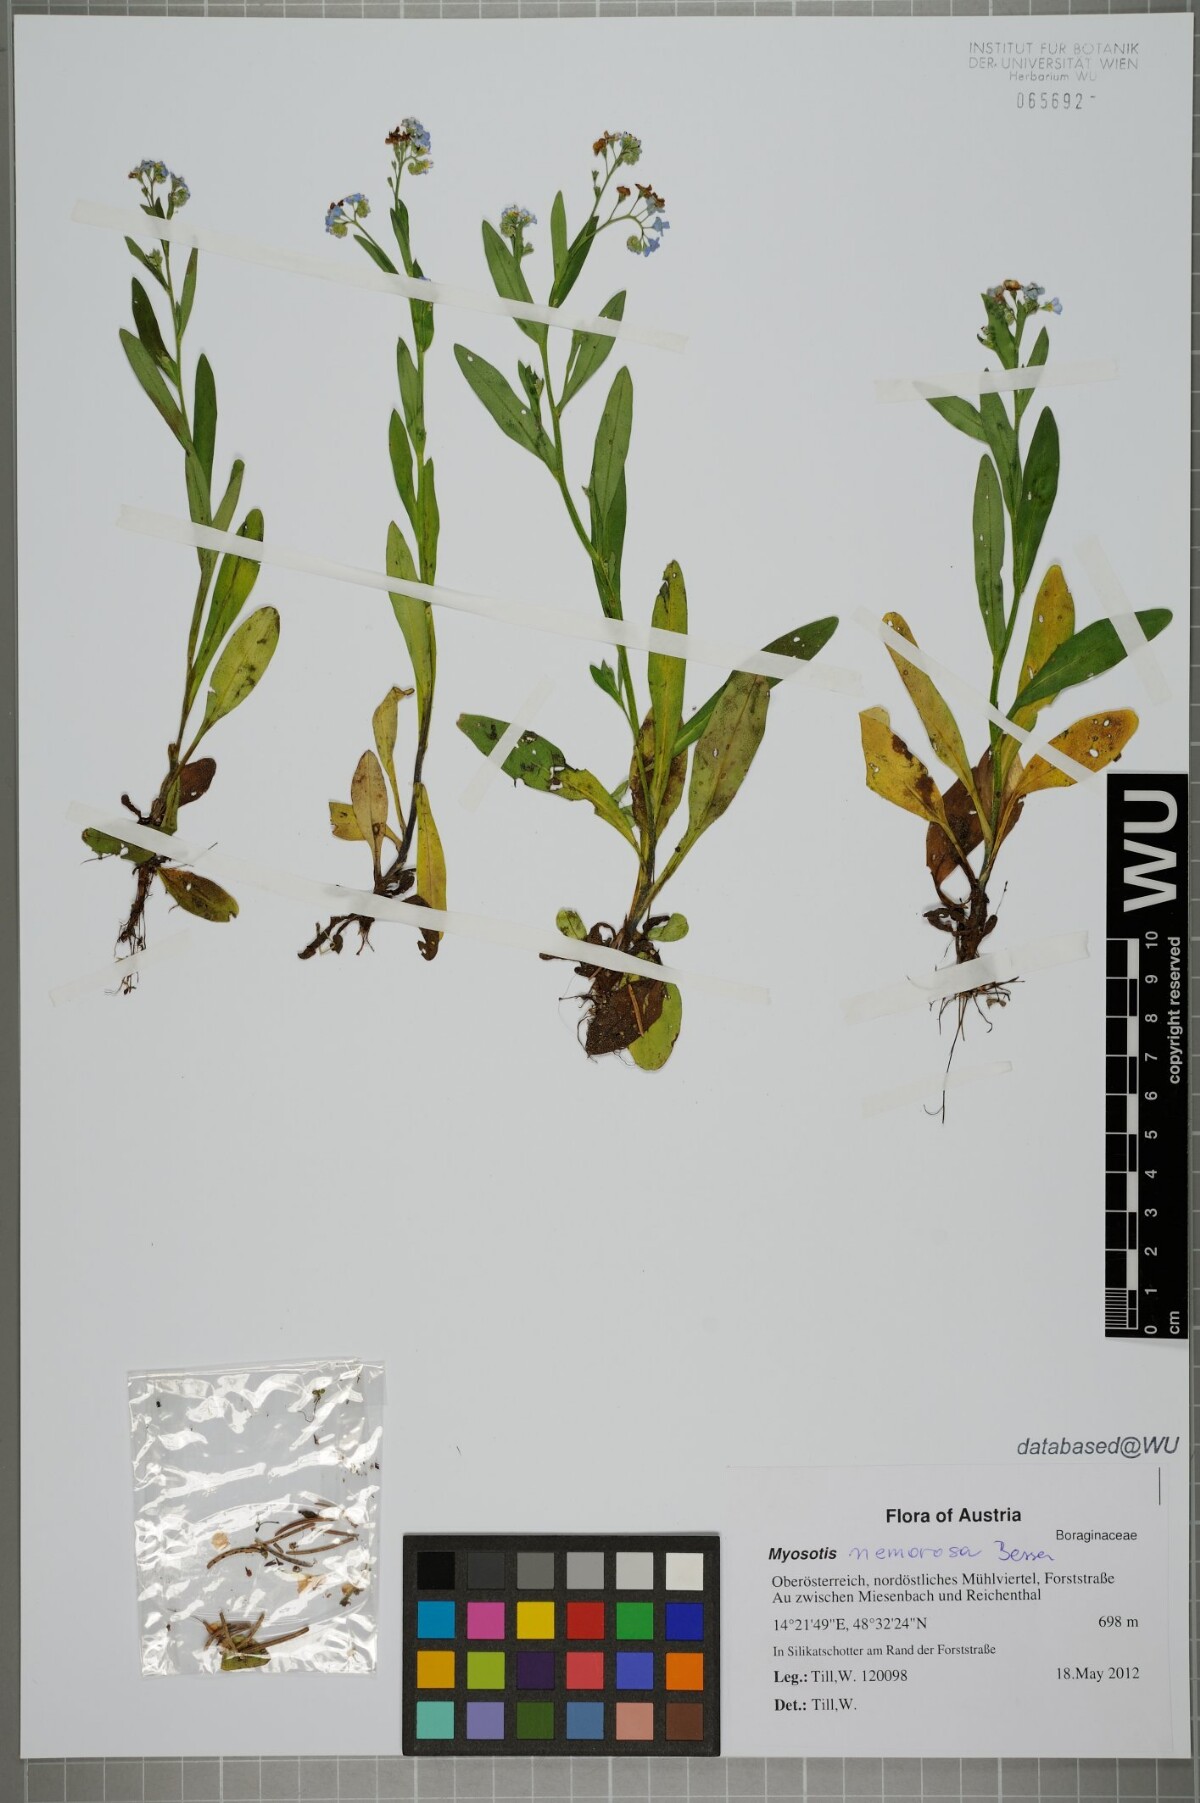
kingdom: Plantae
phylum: Tracheophyta
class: Magnoliopsida
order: Boraginales
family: Boraginaceae
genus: Myosotis
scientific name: Myosotis nemorosa
